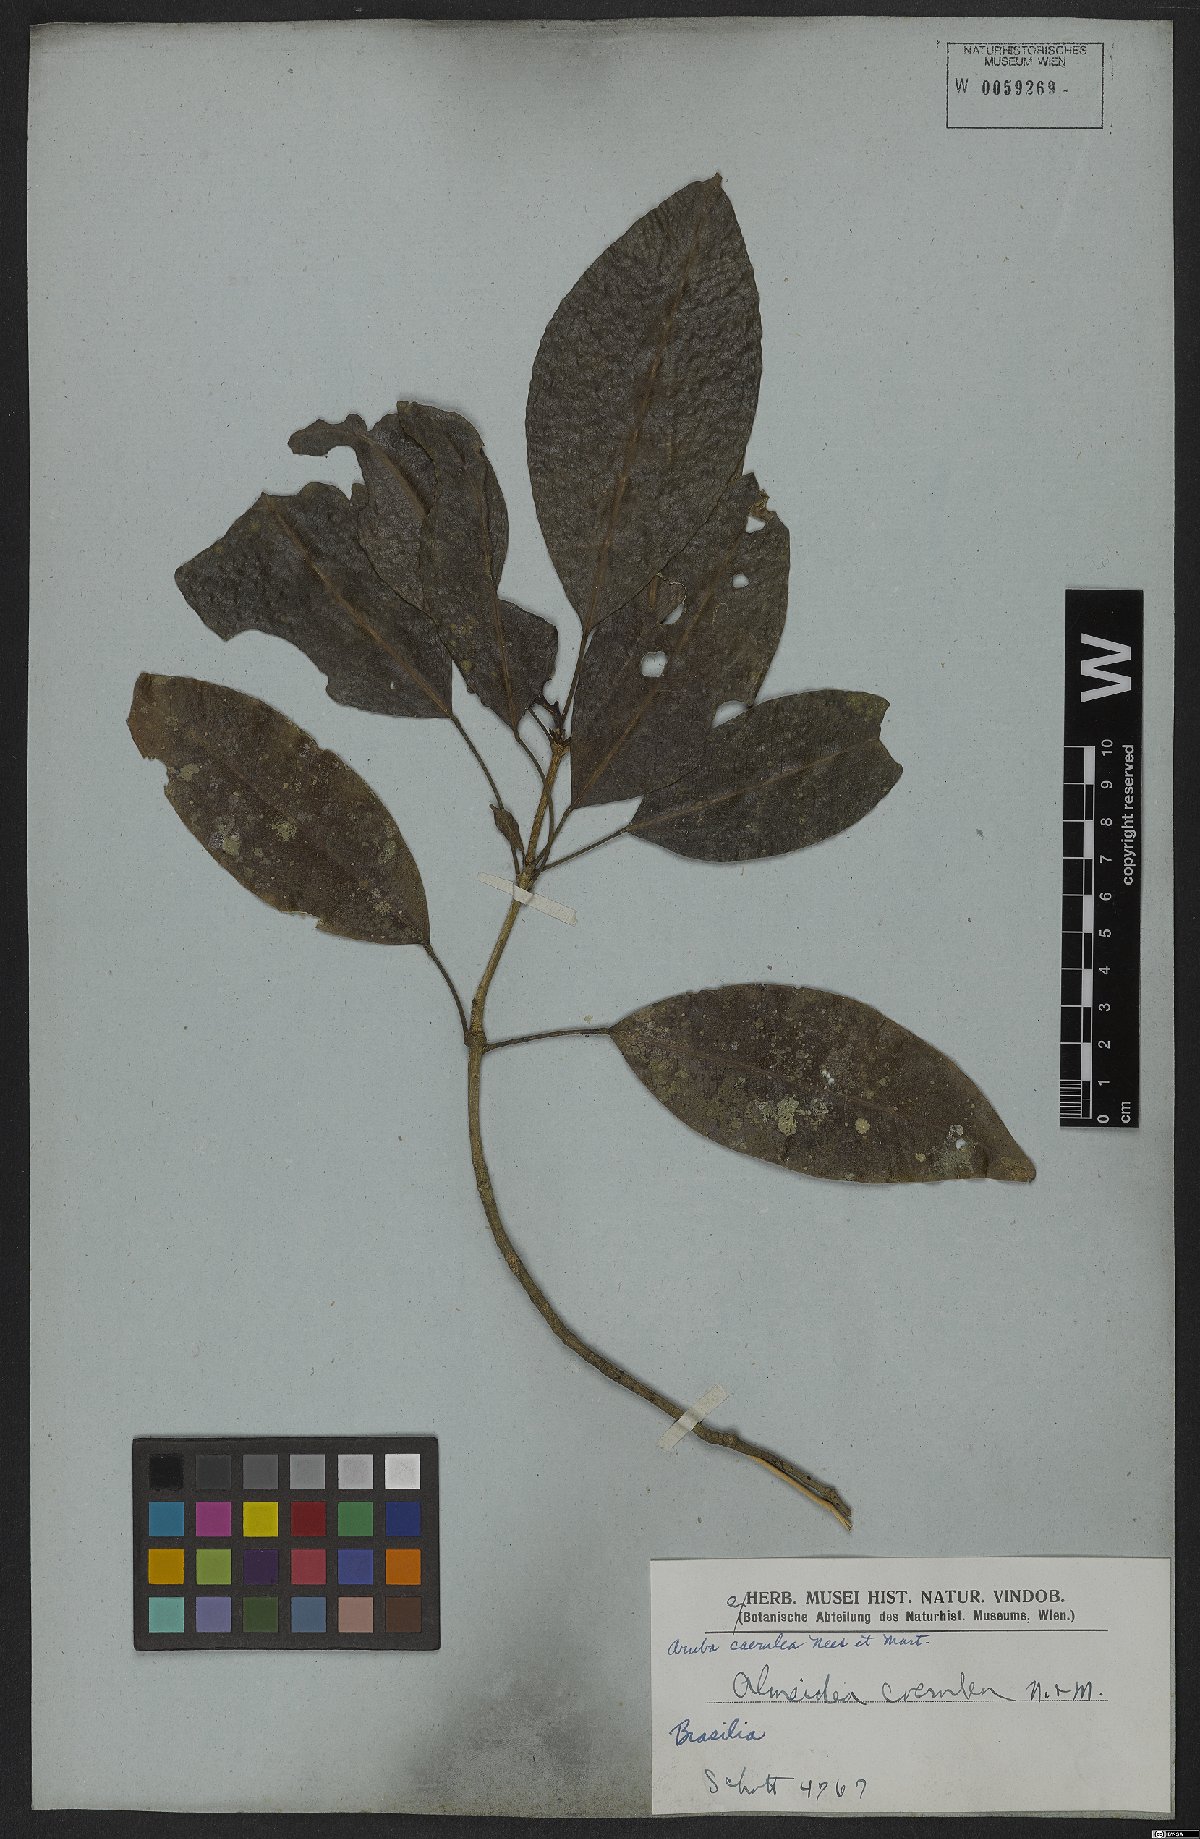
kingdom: Plantae
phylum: Tracheophyta
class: Magnoliopsida
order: Sapindales
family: Rutaceae
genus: Conchocarpus
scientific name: Conchocarpus coeruleus
